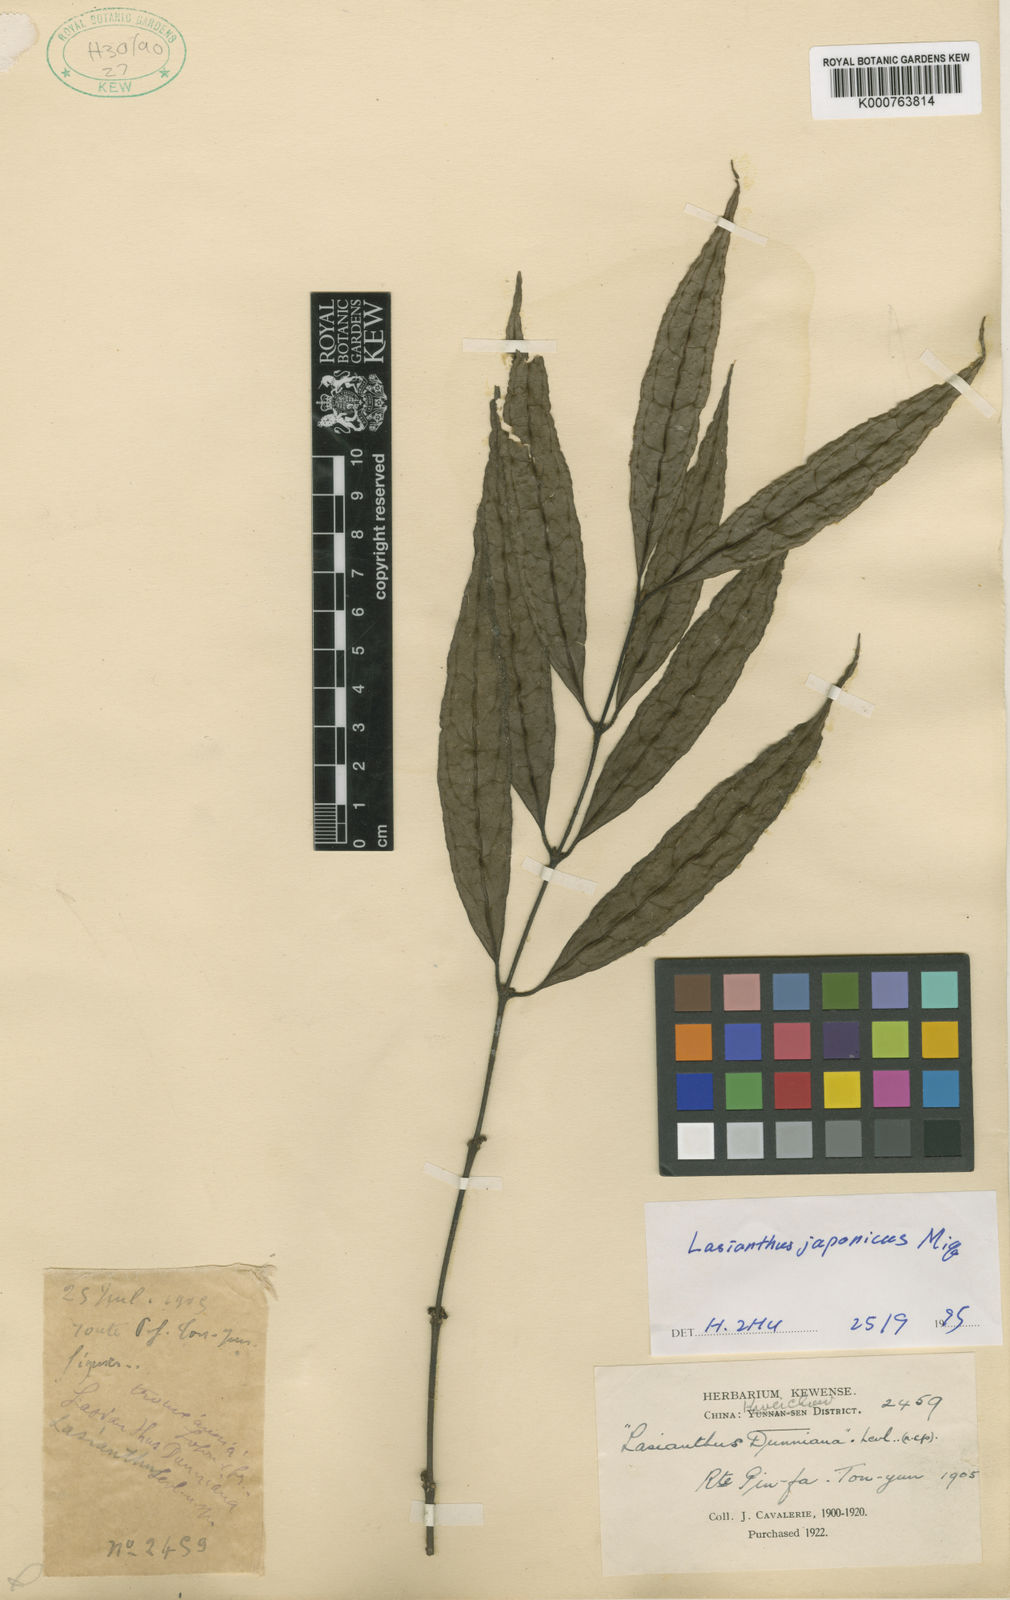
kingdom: Plantae
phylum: Tracheophyta
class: Magnoliopsida
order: Gentianales
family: Rubiaceae
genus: Lasianthus
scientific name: Lasianthus japonicus
